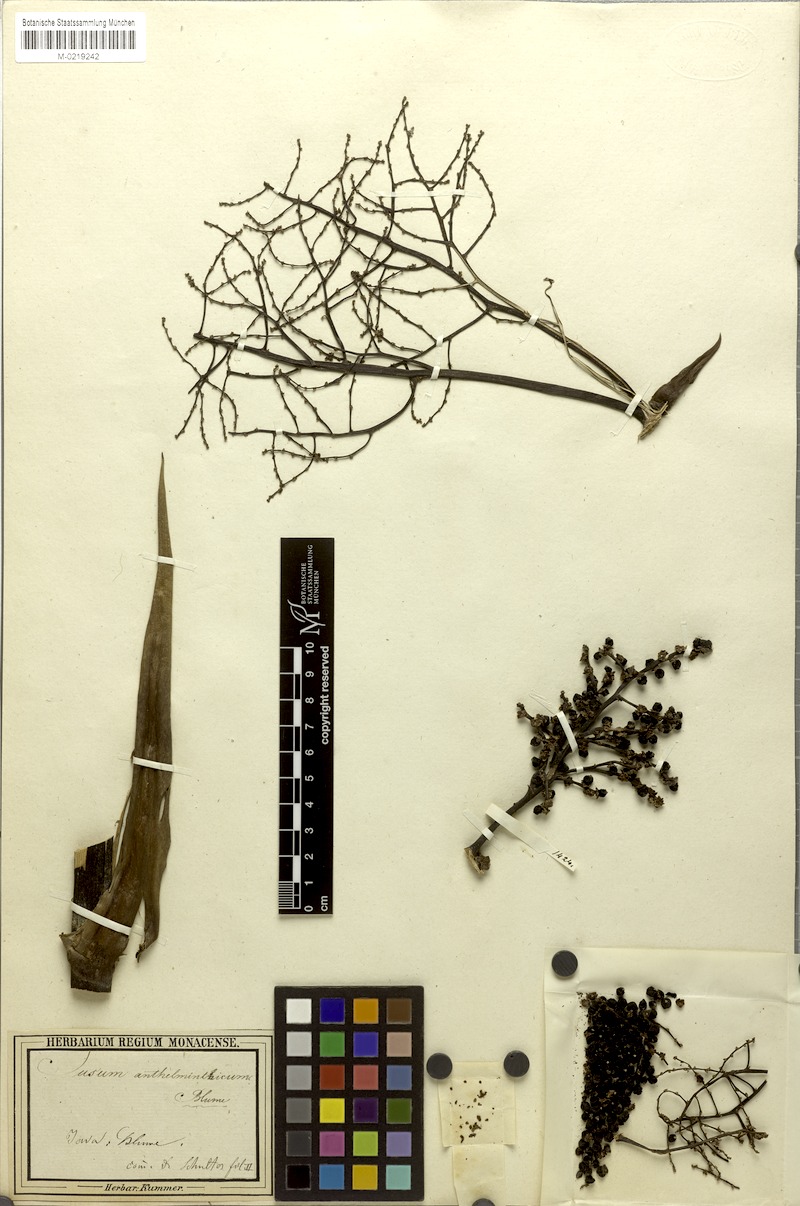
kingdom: Plantae
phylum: Tracheophyta
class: Liliopsida
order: Commelinales
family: Hanguanaceae
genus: Hanguana
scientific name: Hanguana malayana
